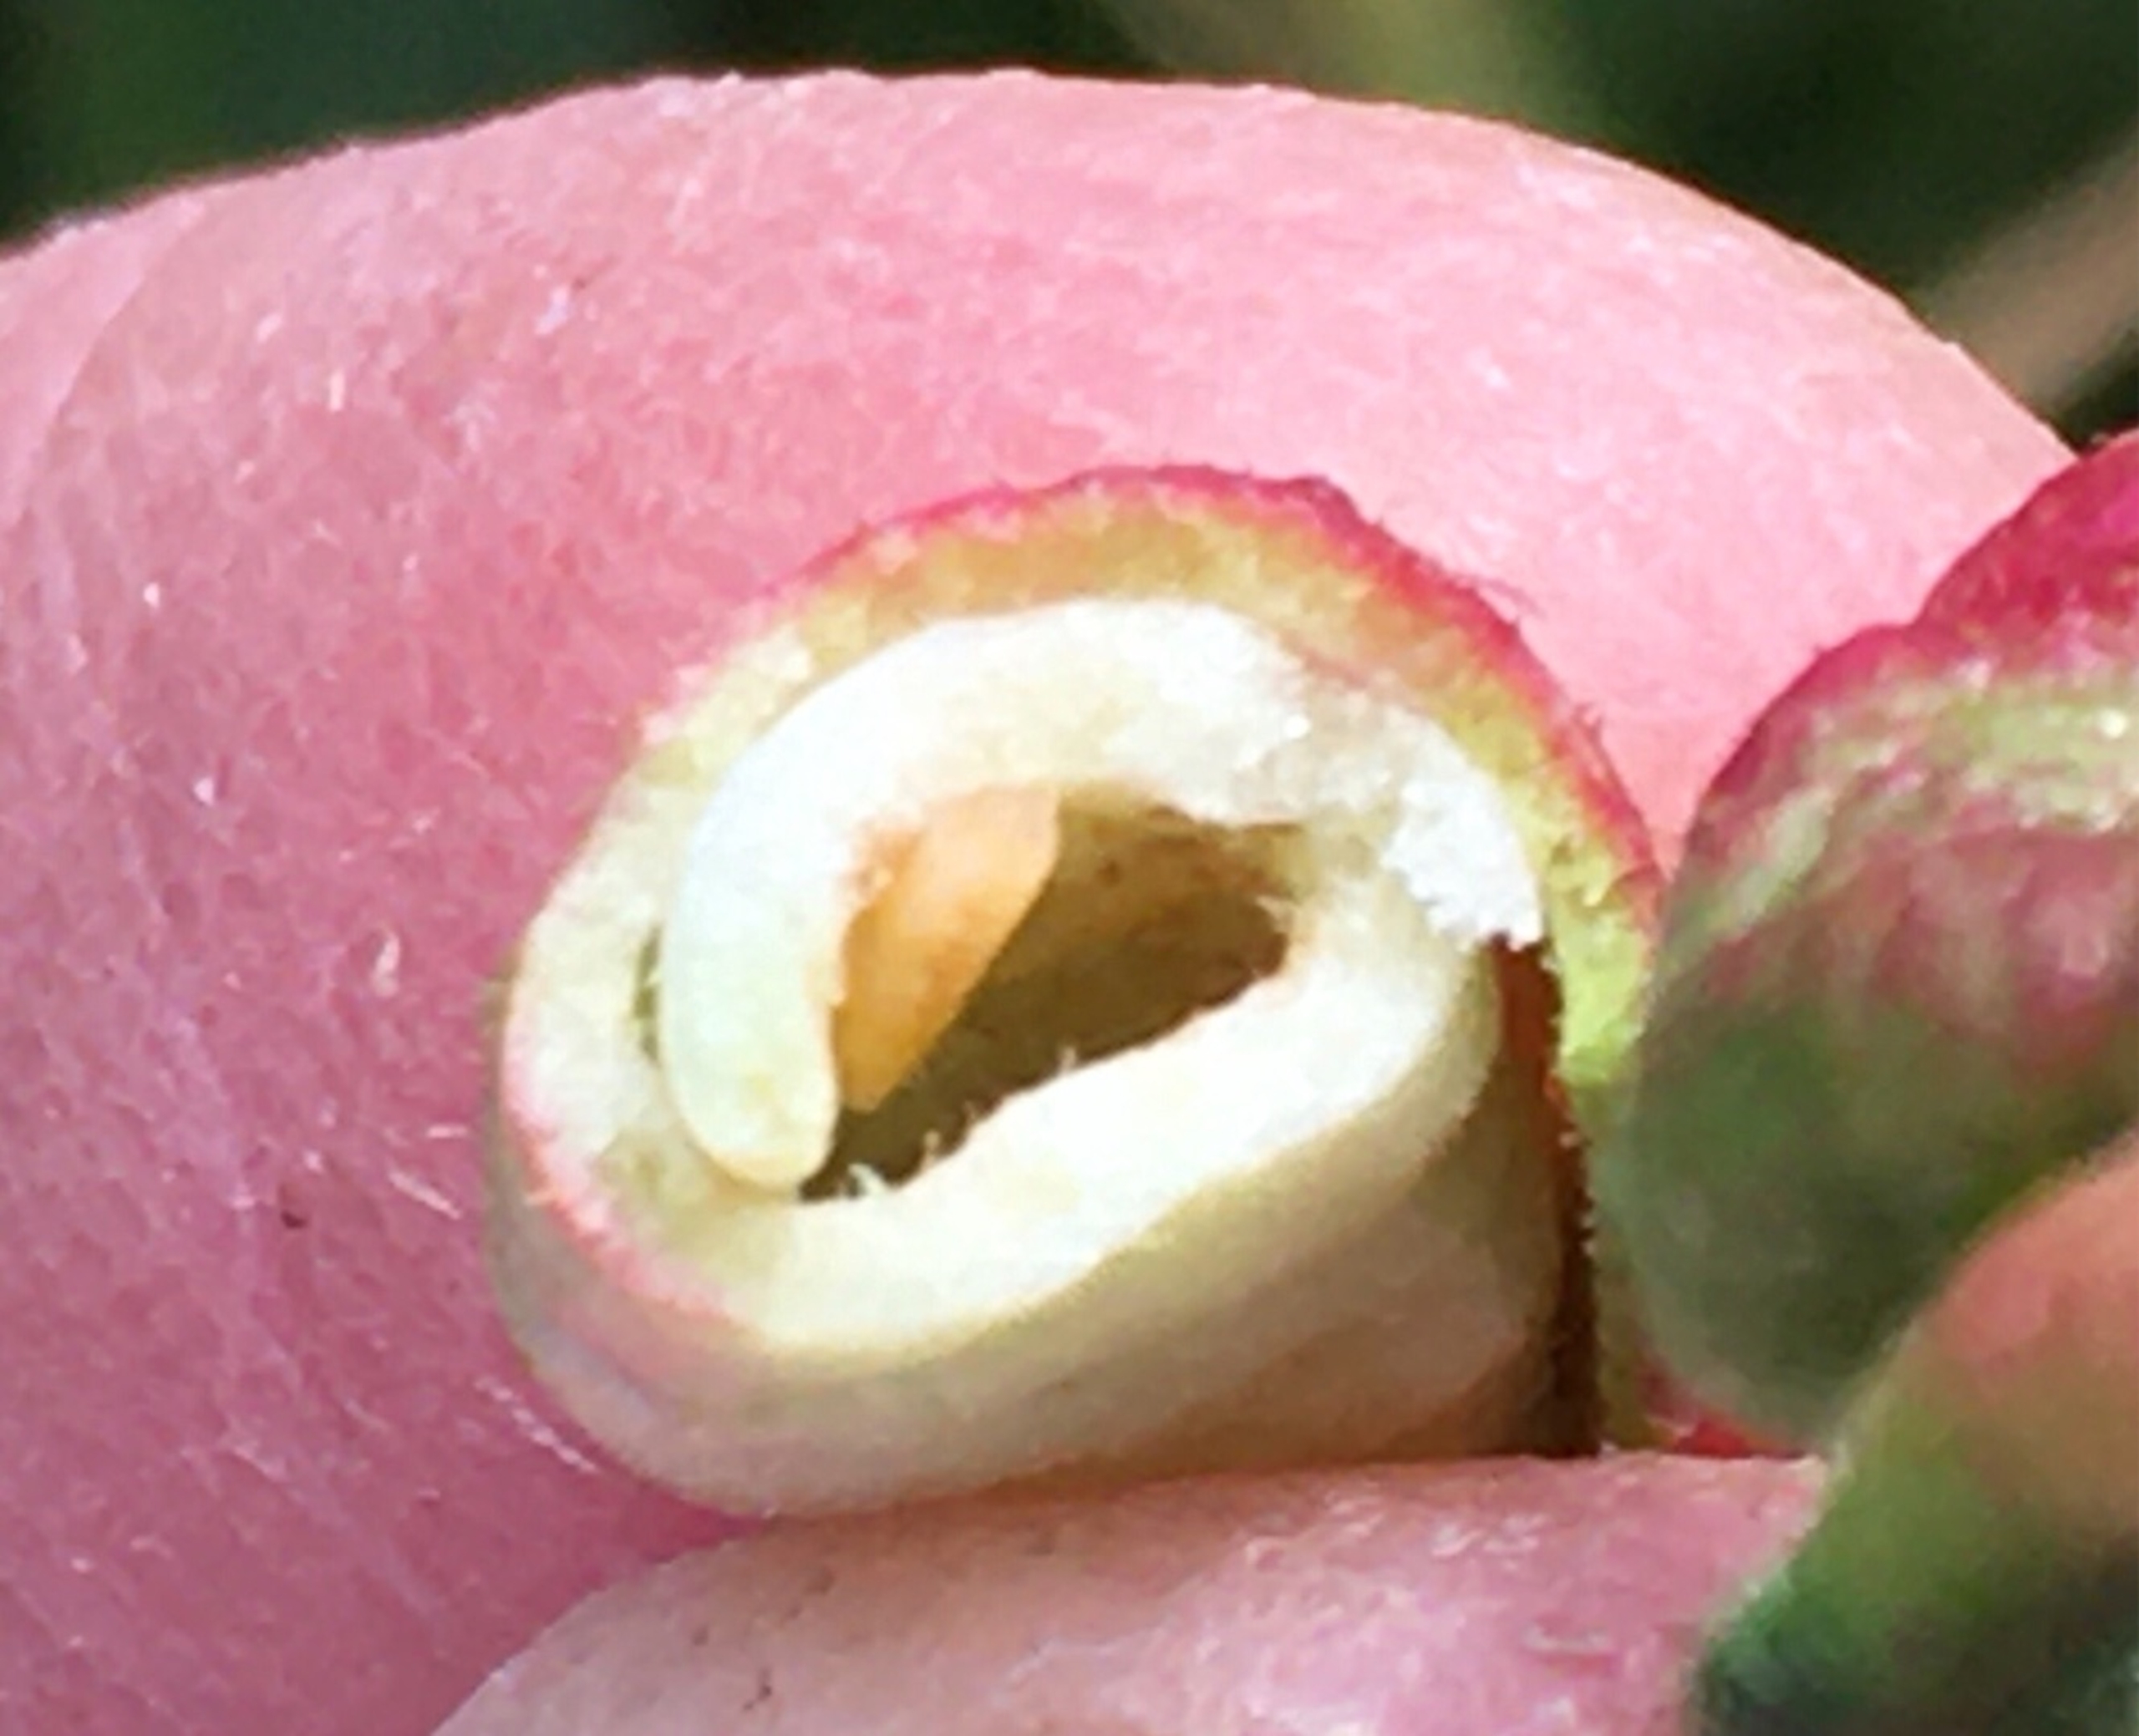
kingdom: Animalia
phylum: Arthropoda
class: Insecta
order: Diptera
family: Cecidomyiidae
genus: Wachtliella
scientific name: Wachtliella persicariae
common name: Pileurtgalmyg
